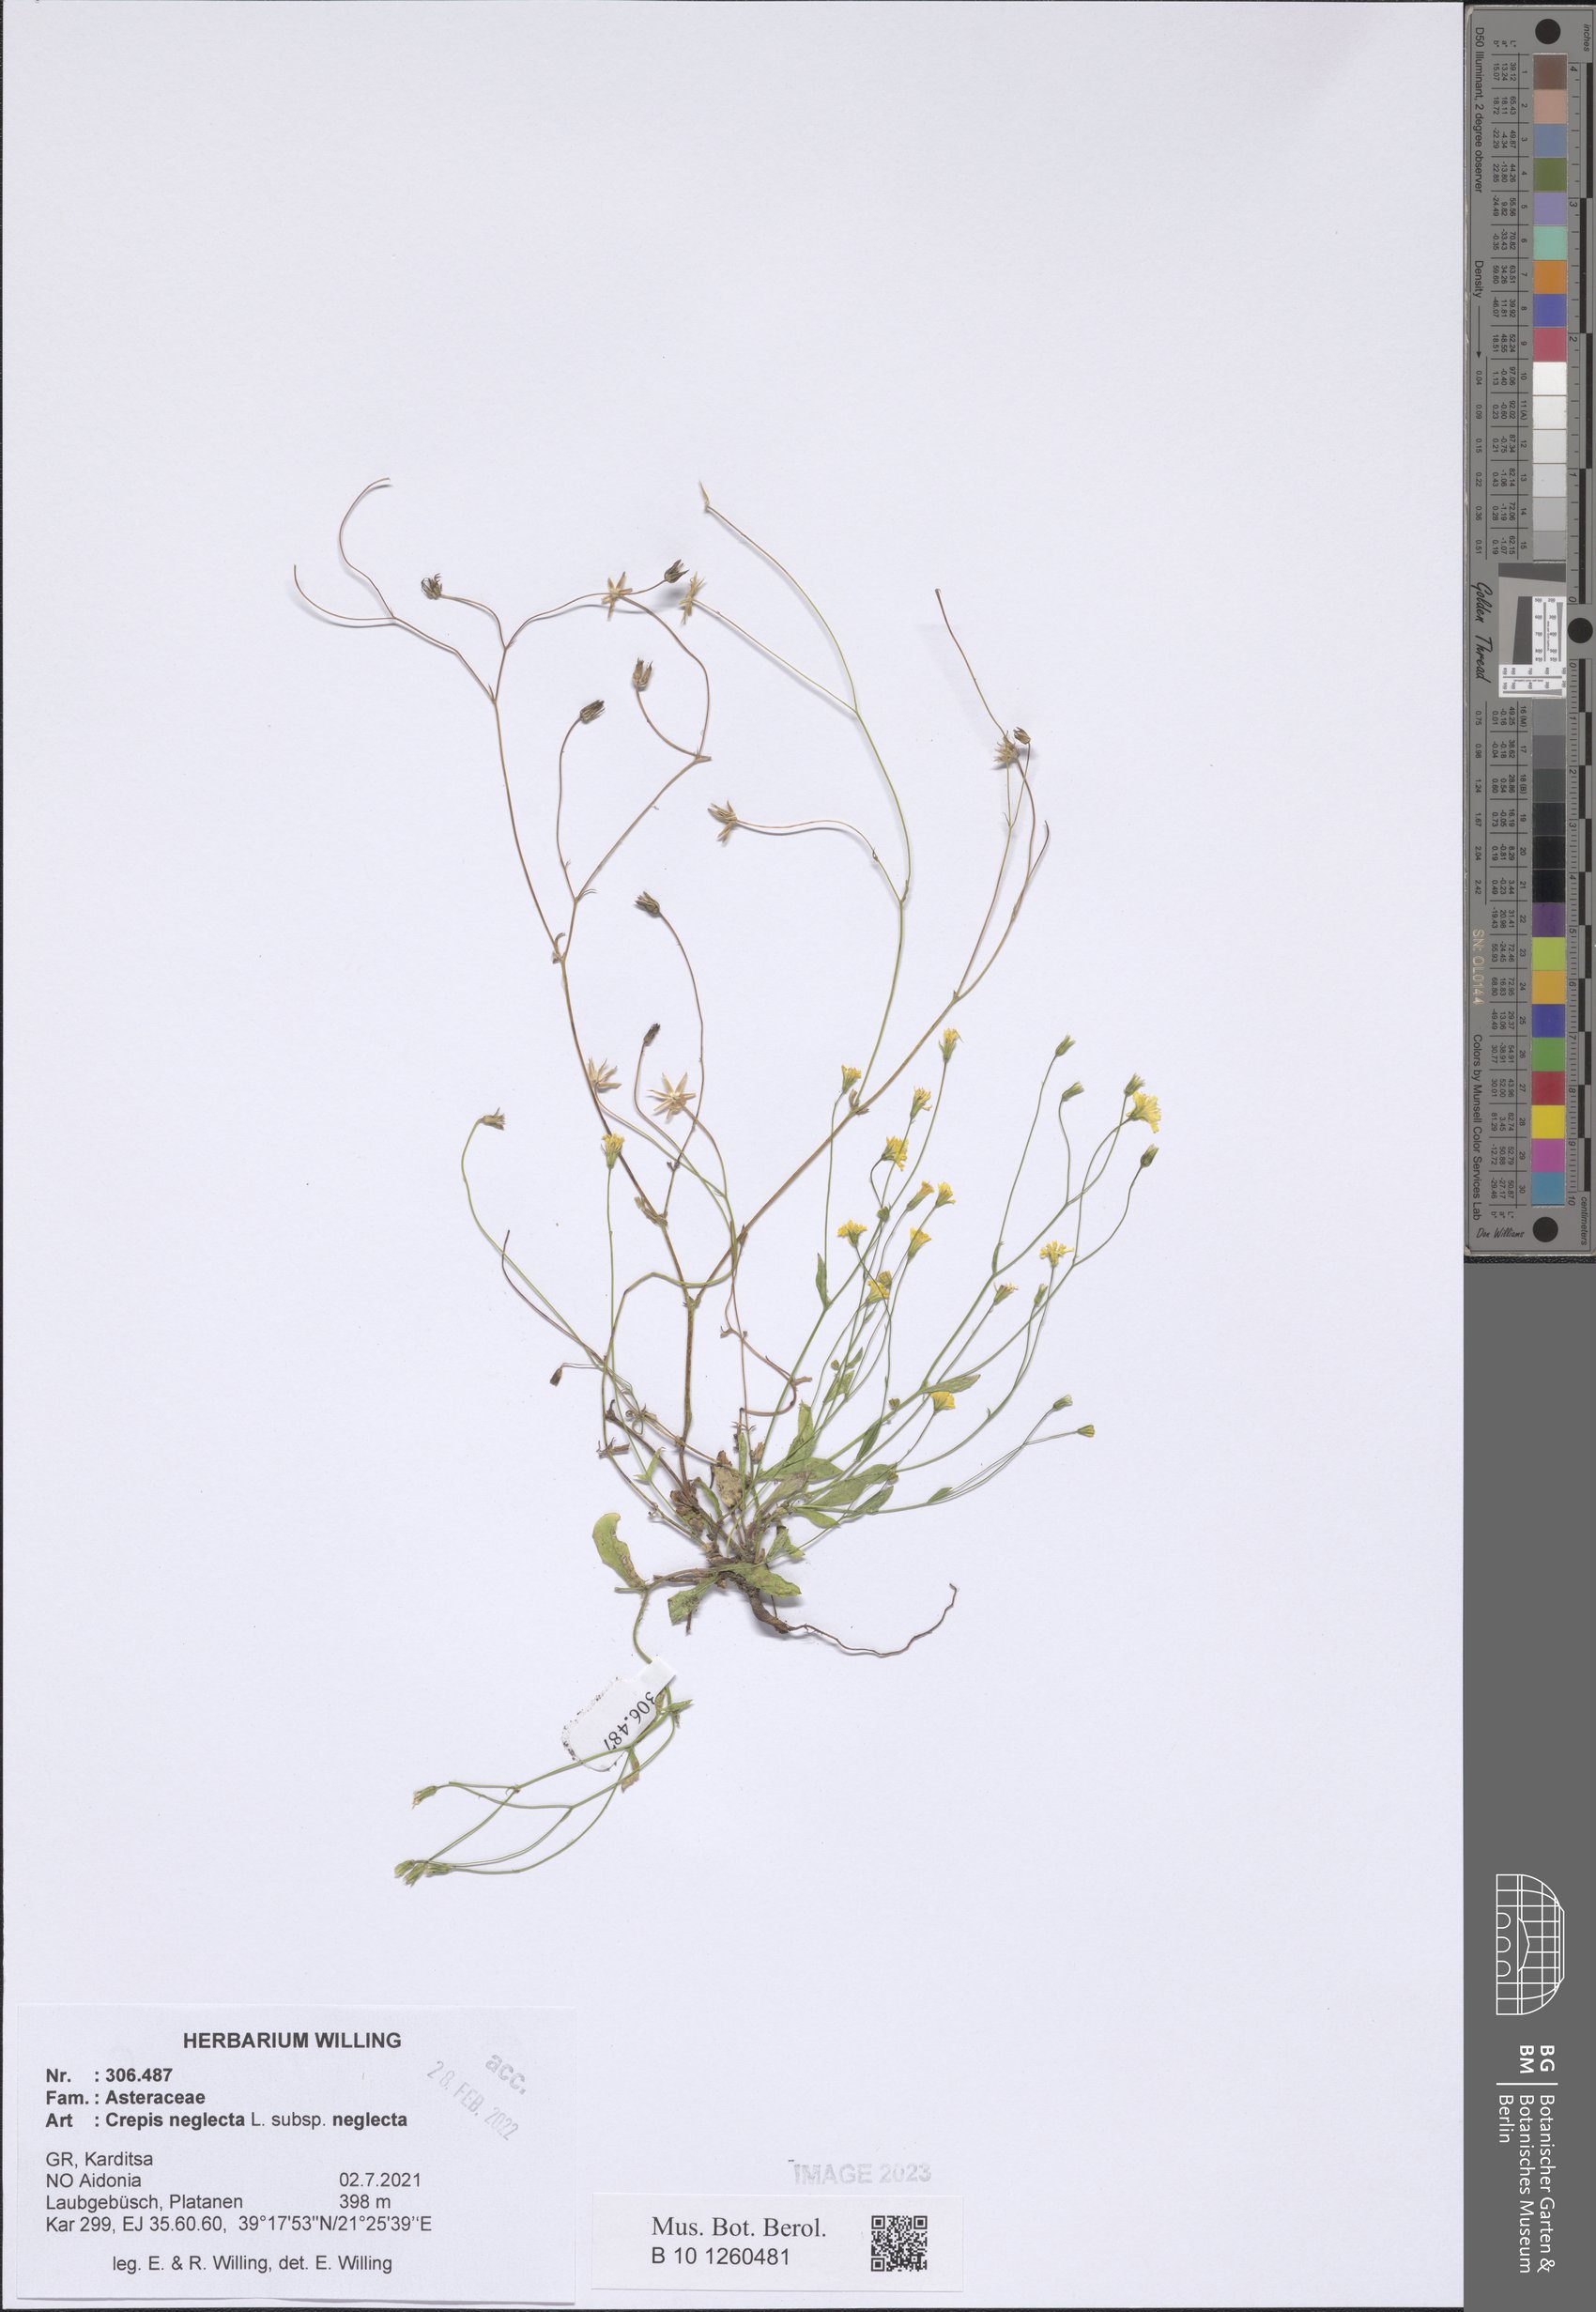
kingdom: Plantae
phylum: Tracheophyta
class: Magnoliopsida
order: Asterales
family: Asteraceae
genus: Crepis
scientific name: Crepis neglecta
